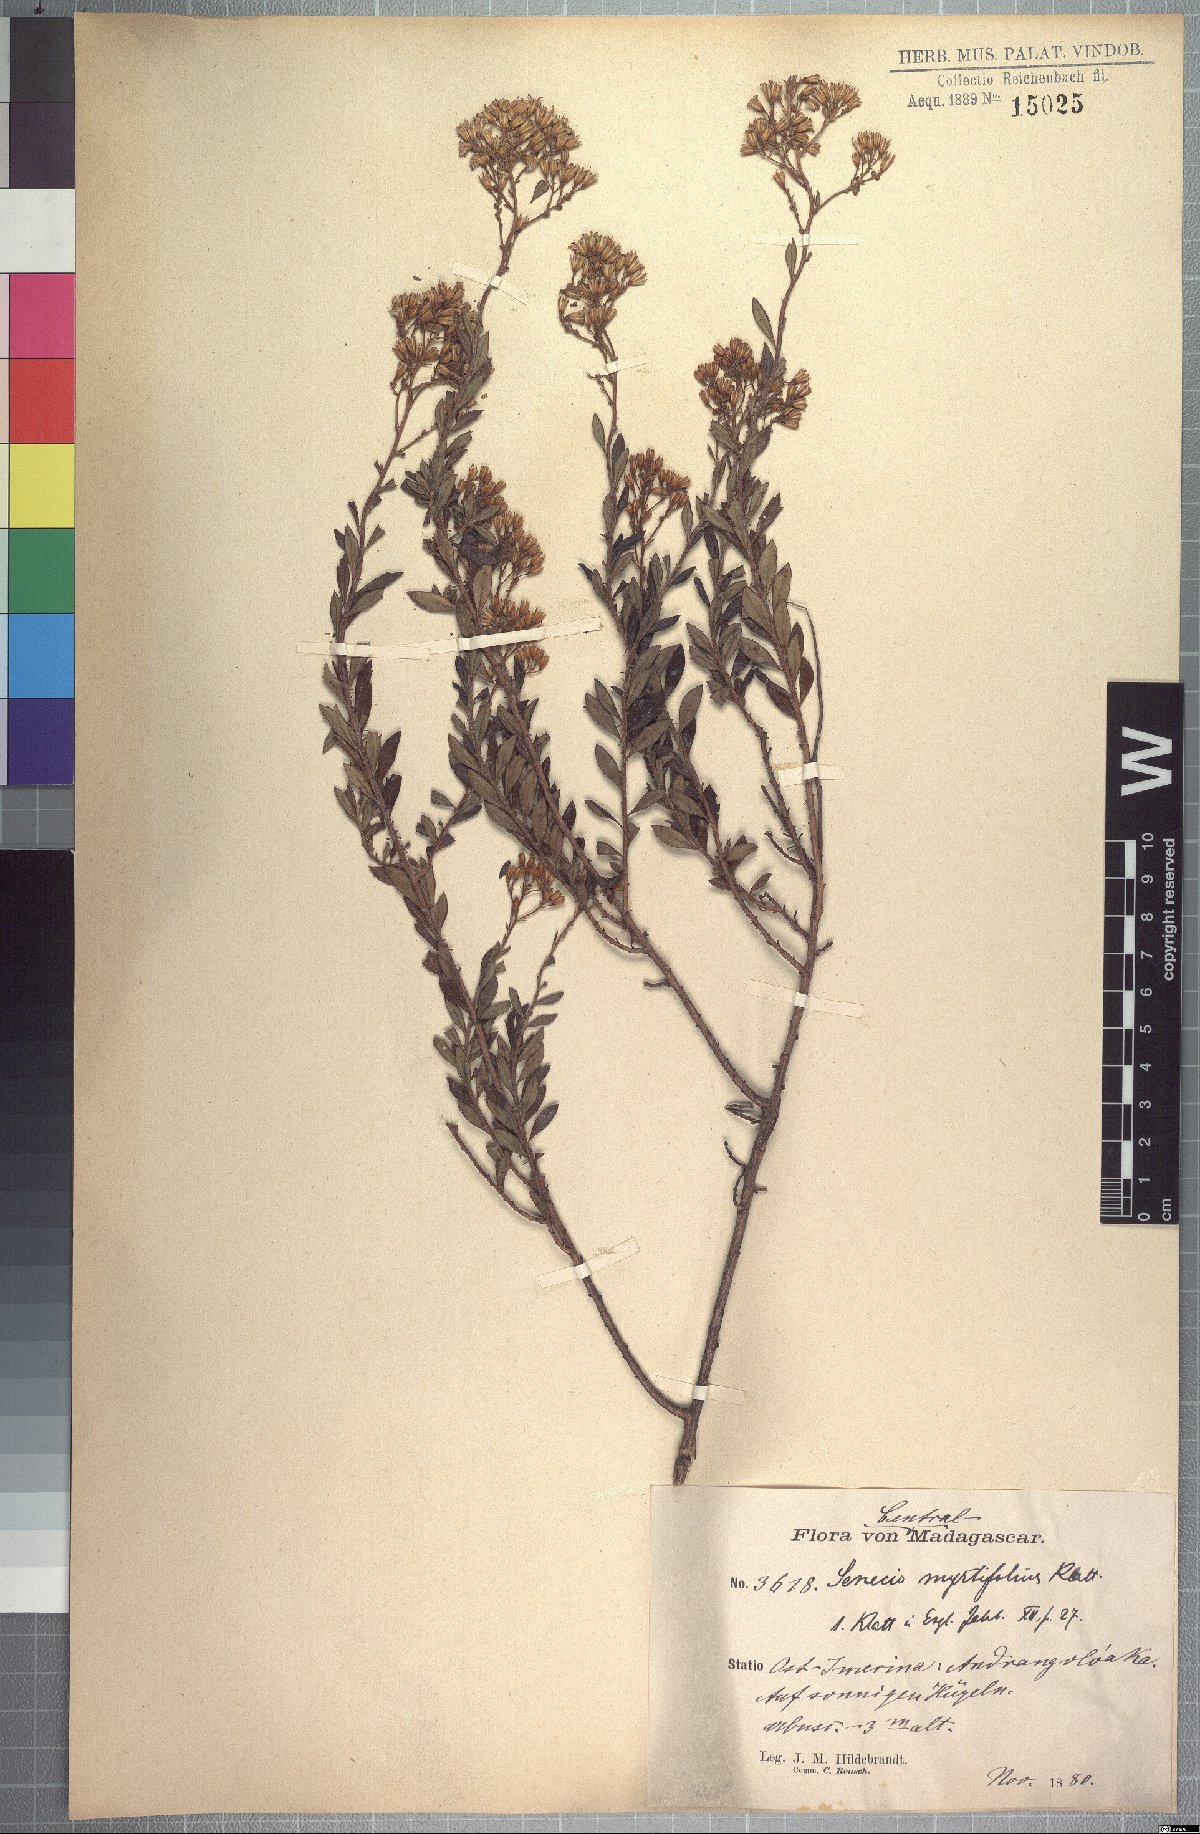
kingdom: Plantae
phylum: Tracheophyta
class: Magnoliopsida
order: Asterales
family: Asteraceae
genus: Senecio
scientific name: Senecio arenarius
